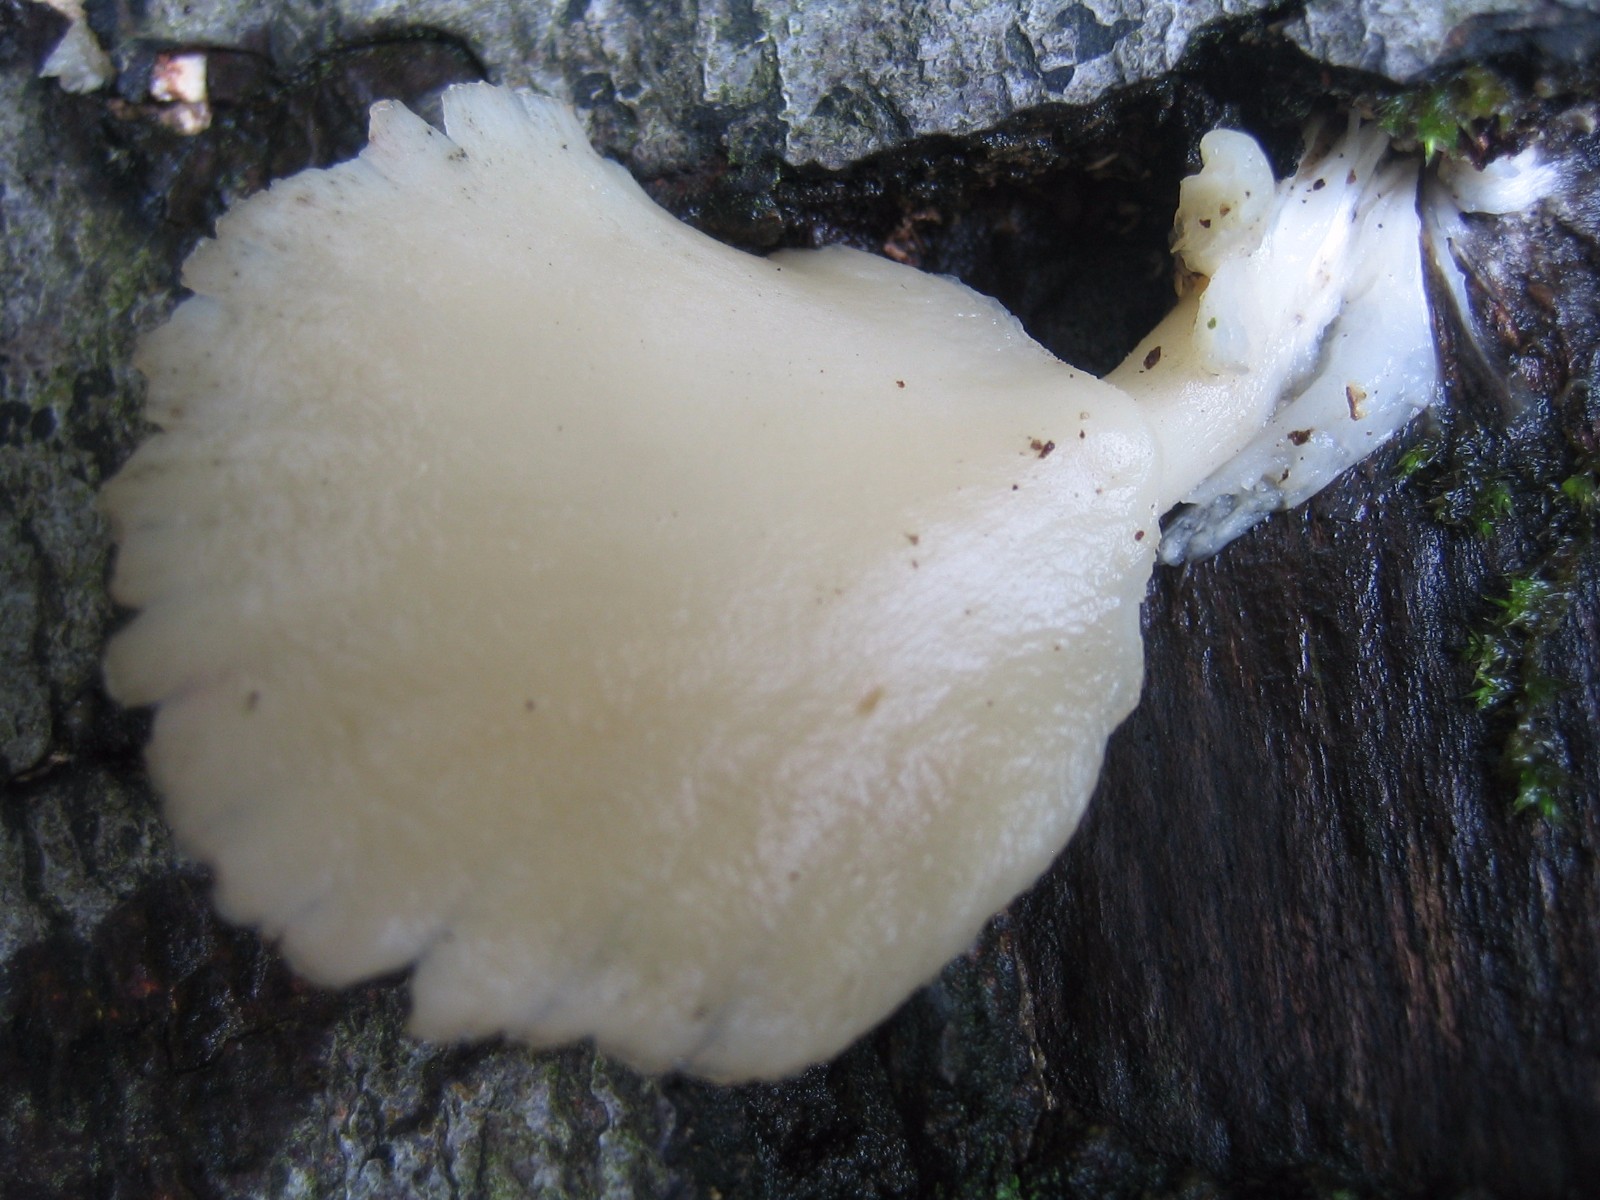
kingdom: Fungi
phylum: Basidiomycota
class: Agaricomycetes
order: Agaricales
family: Pleurotaceae
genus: Pleurotus
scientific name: Pleurotus pulmonarius
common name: sommer-østershat
